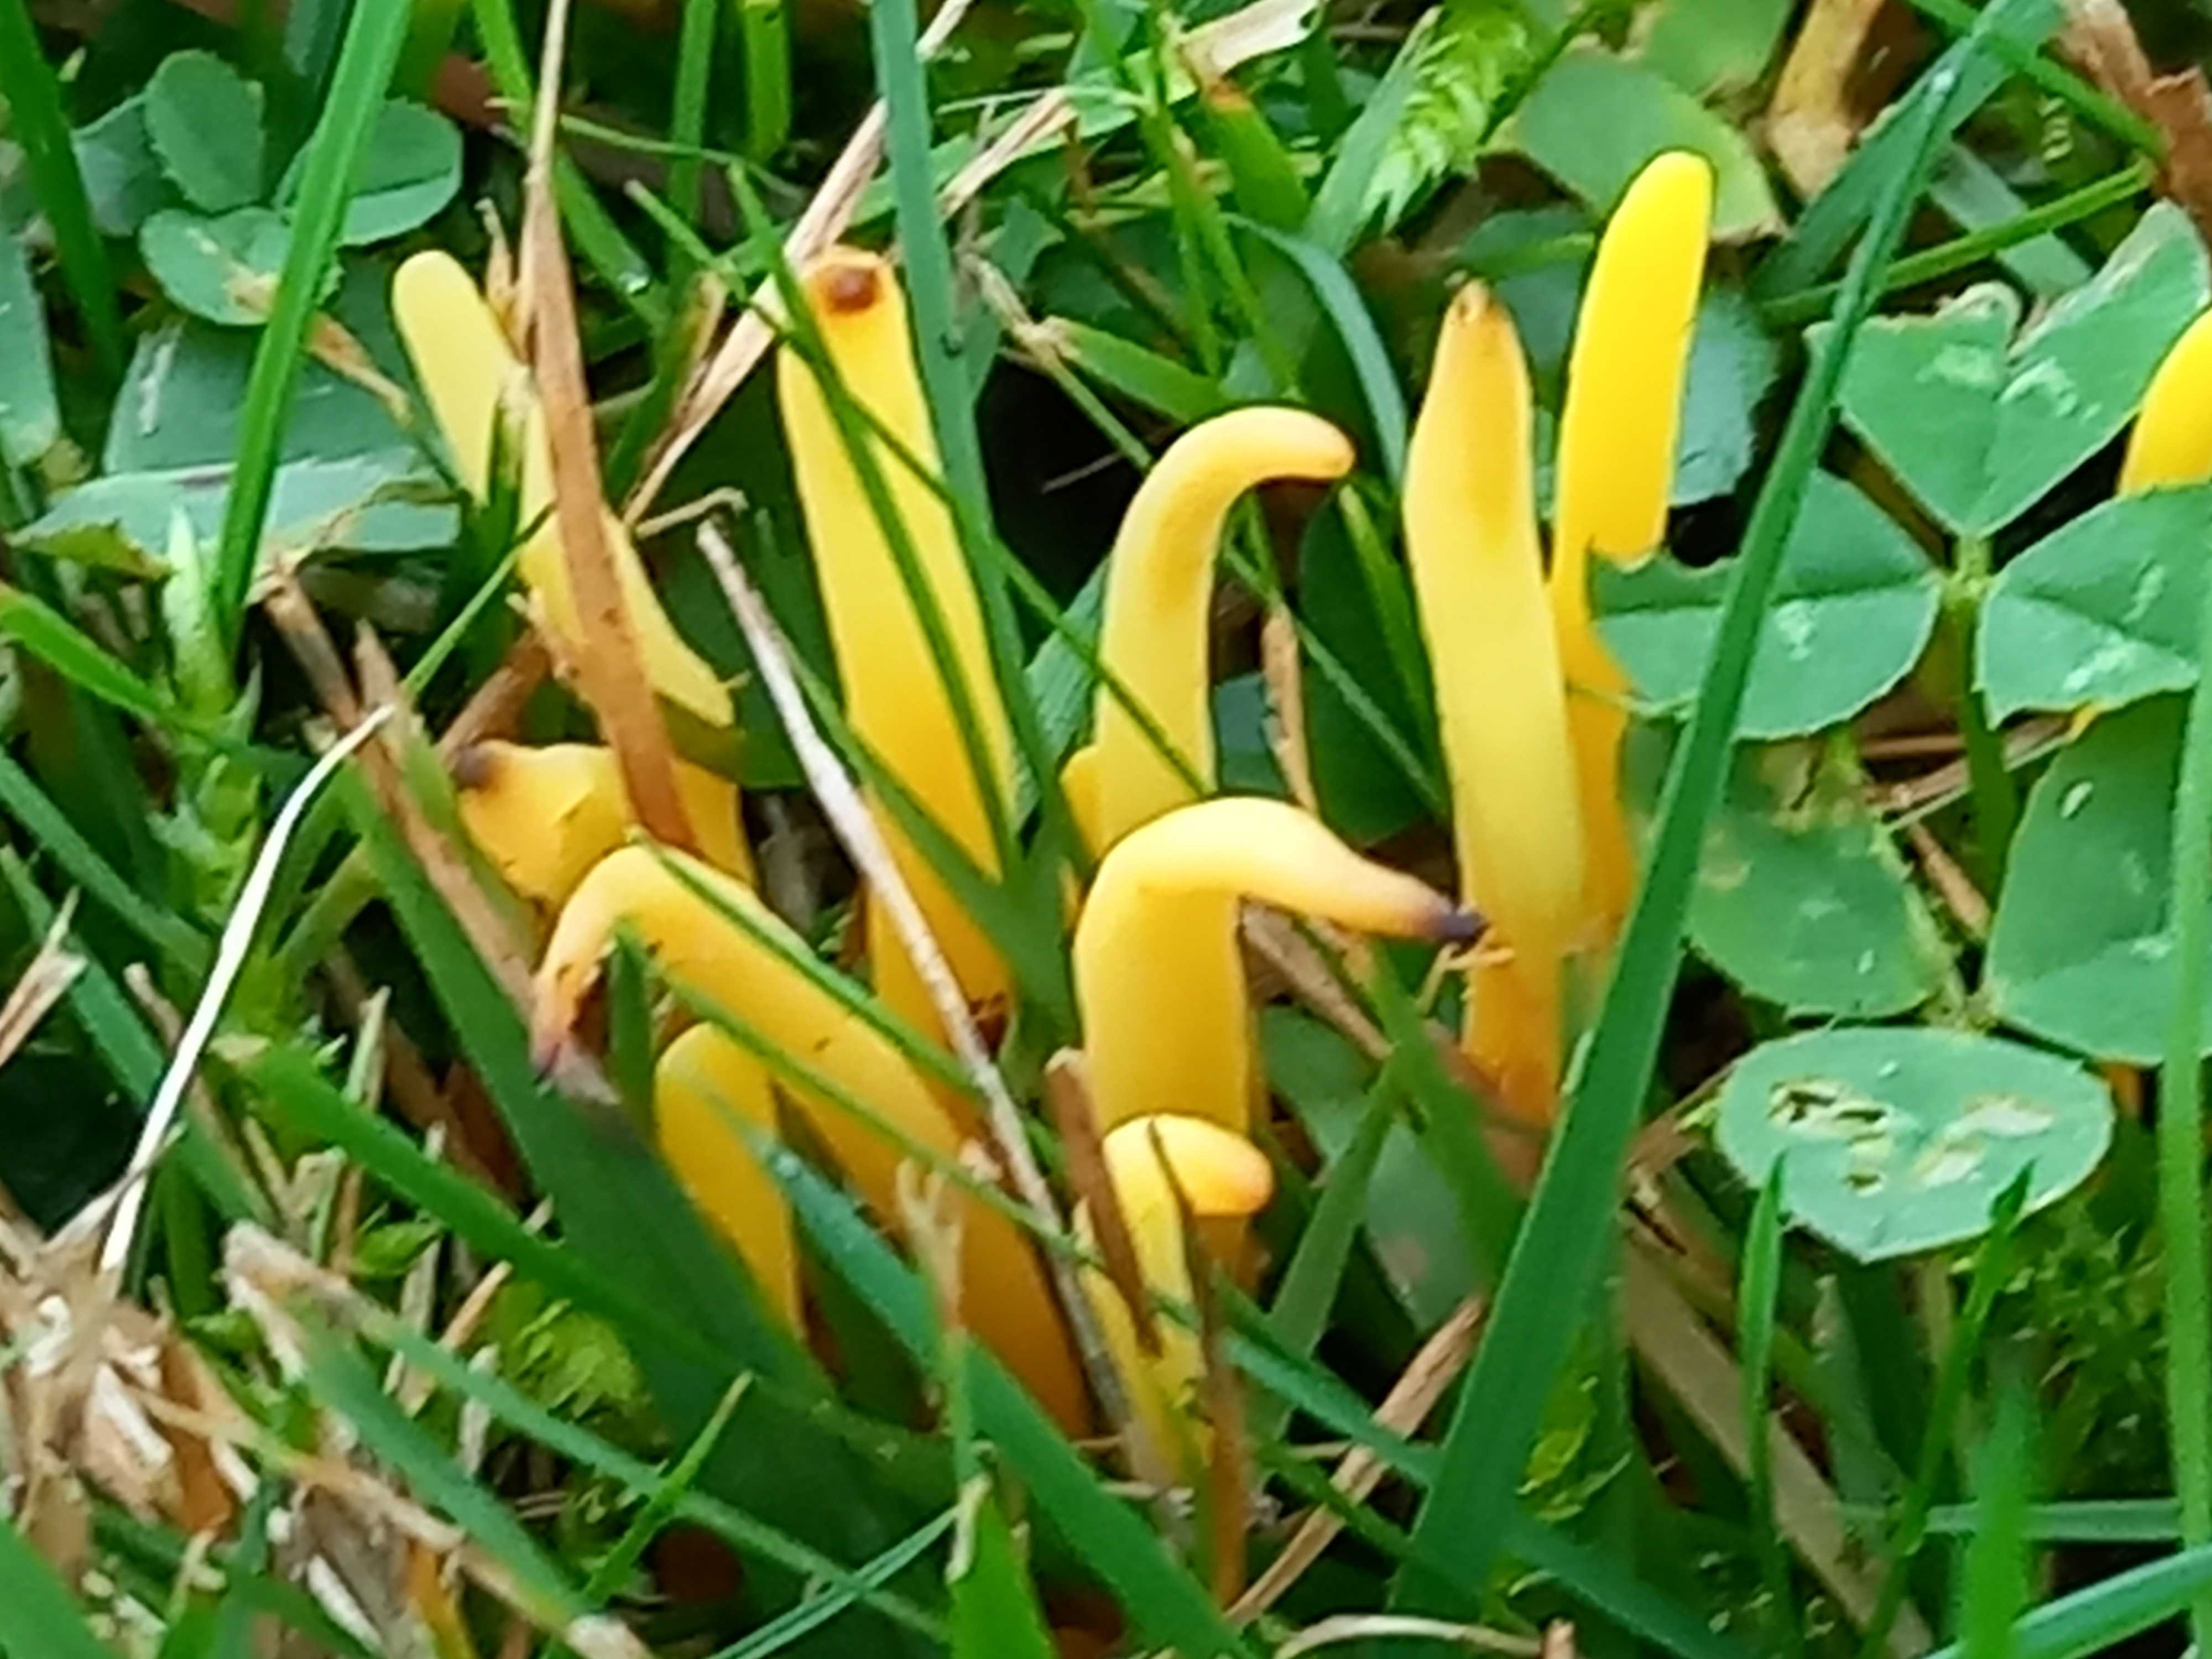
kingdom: Fungi
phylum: Basidiomycota
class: Agaricomycetes
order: Agaricales
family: Clavariaceae
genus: Clavulinopsis
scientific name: Clavulinopsis
